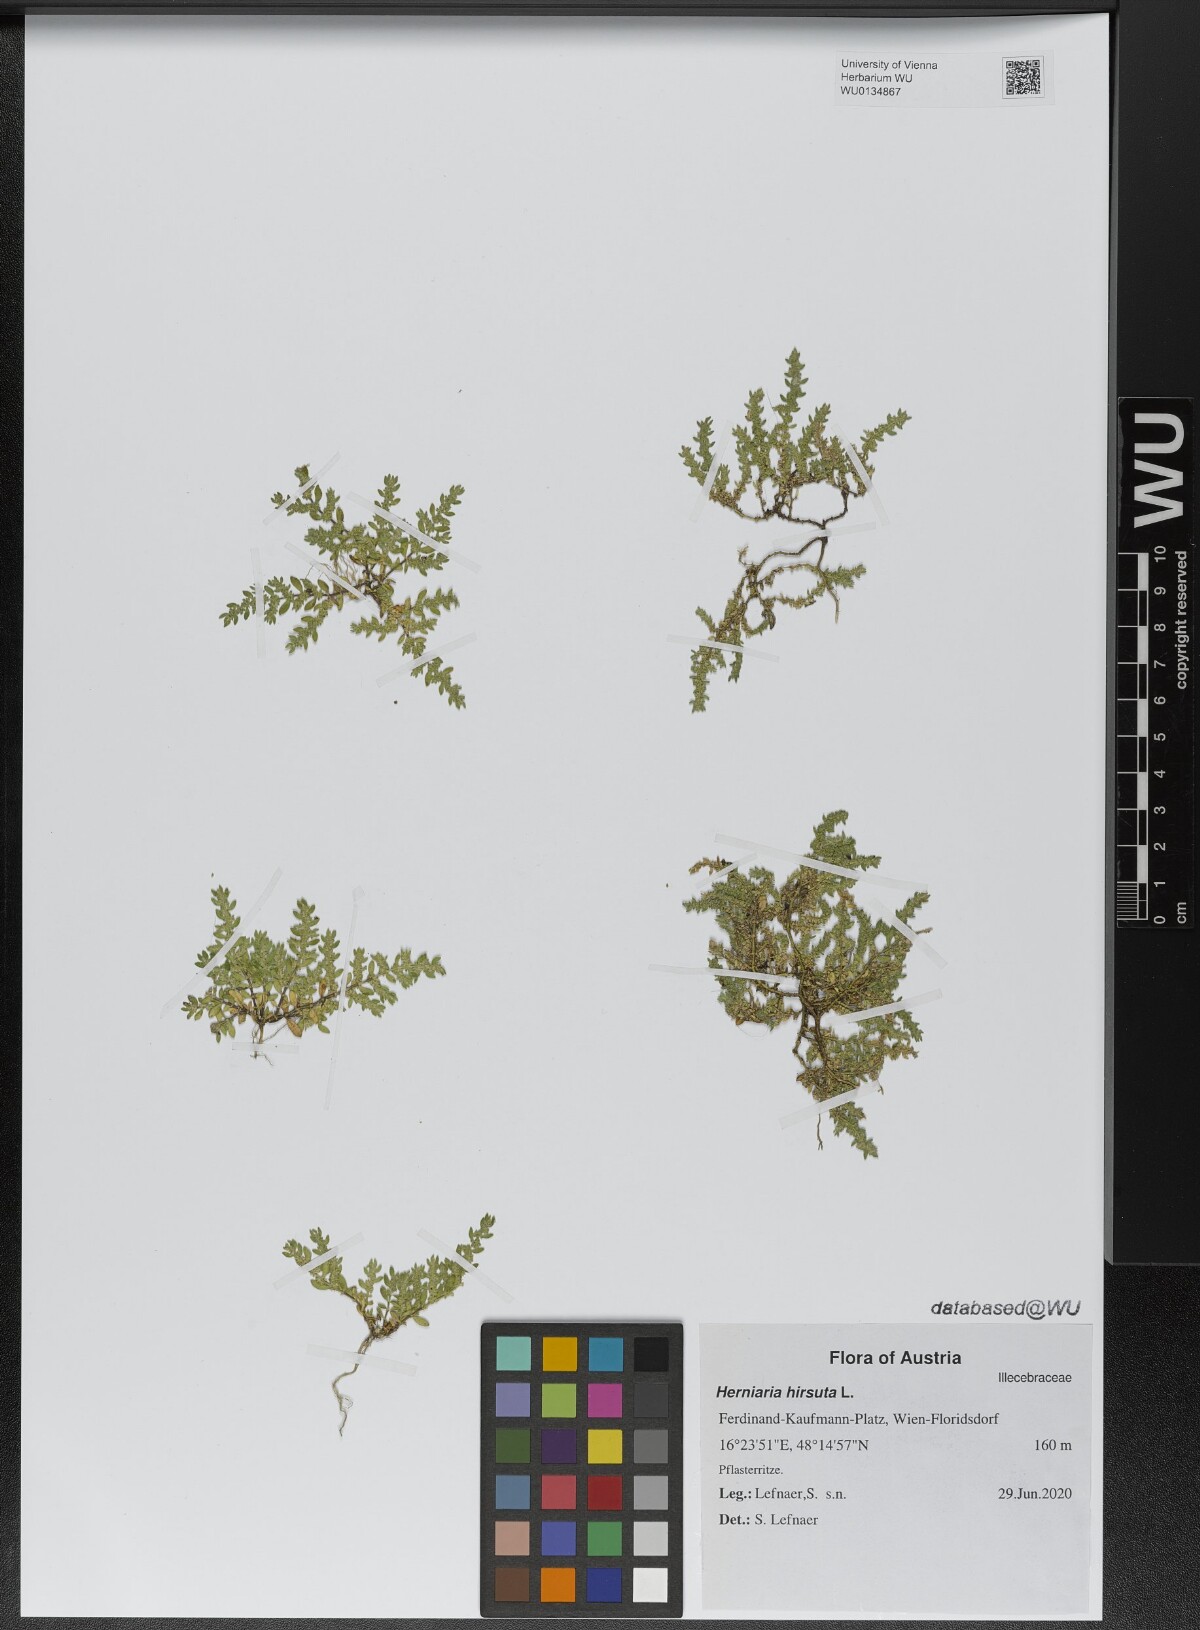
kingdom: Plantae
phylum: Tracheophyta
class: Magnoliopsida
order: Caryophyllales
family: Caryophyllaceae
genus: Herniaria
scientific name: Herniaria hirsuta
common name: Hairy rupturewort
